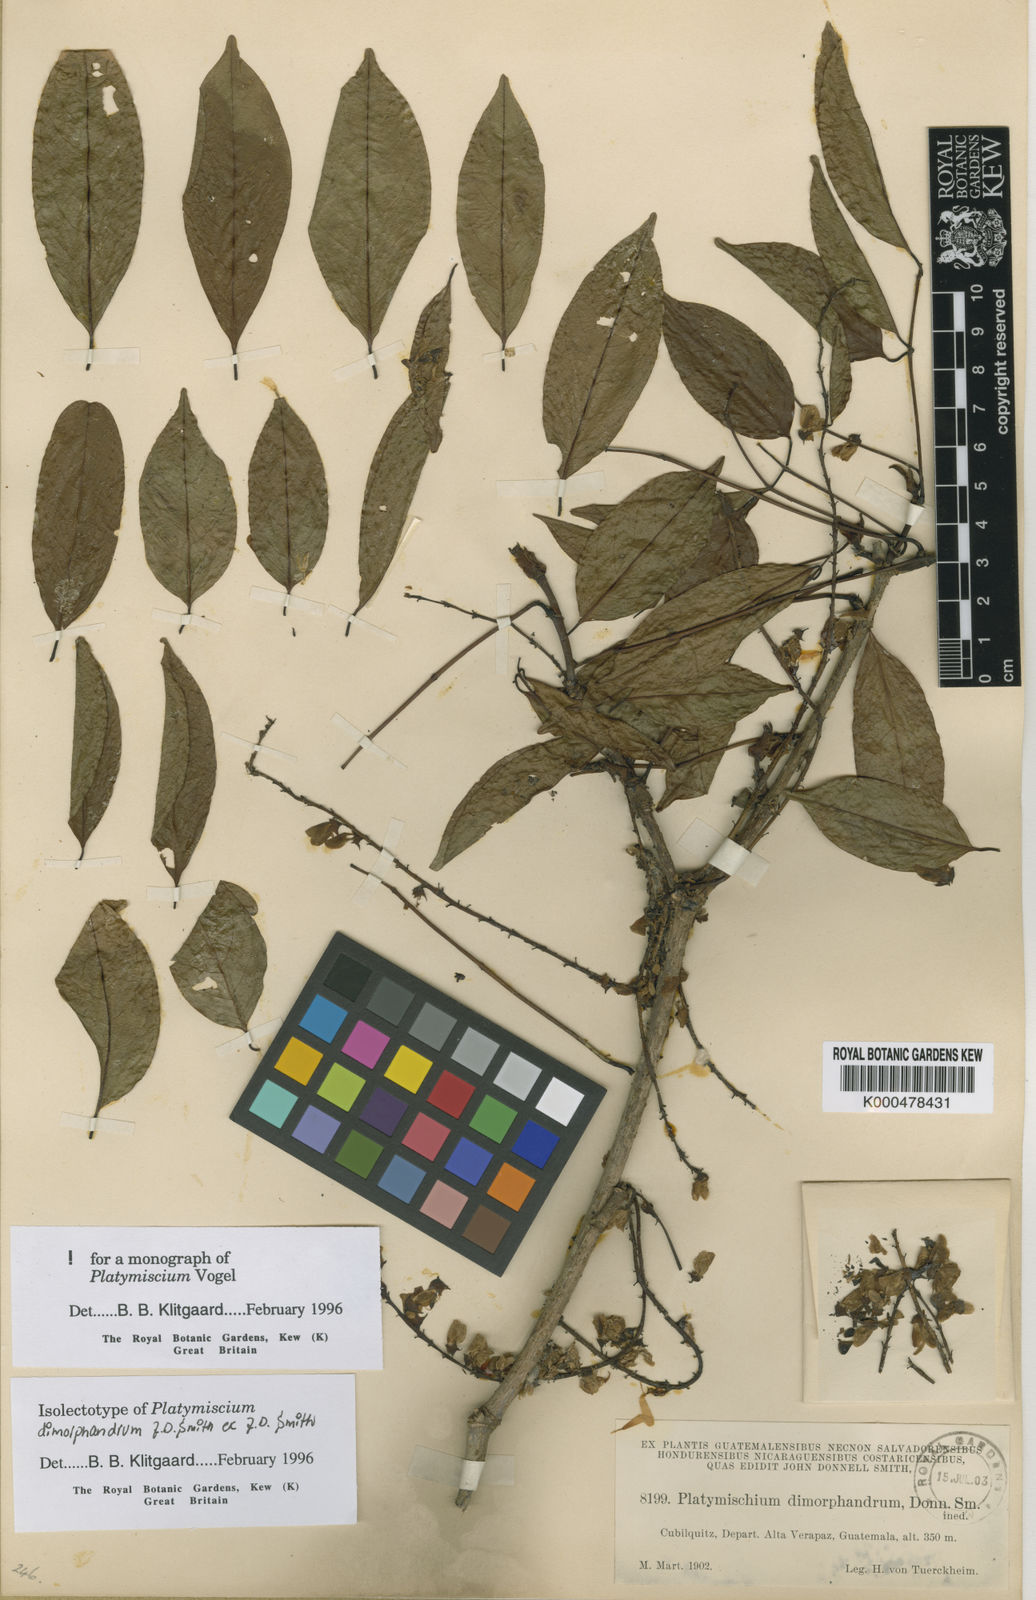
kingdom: Plantae
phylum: Tracheophyta
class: Magnoliopsida
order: Fabales
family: Fabaceae
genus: Platymiscium
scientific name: Platymiscium dimorphandrum
